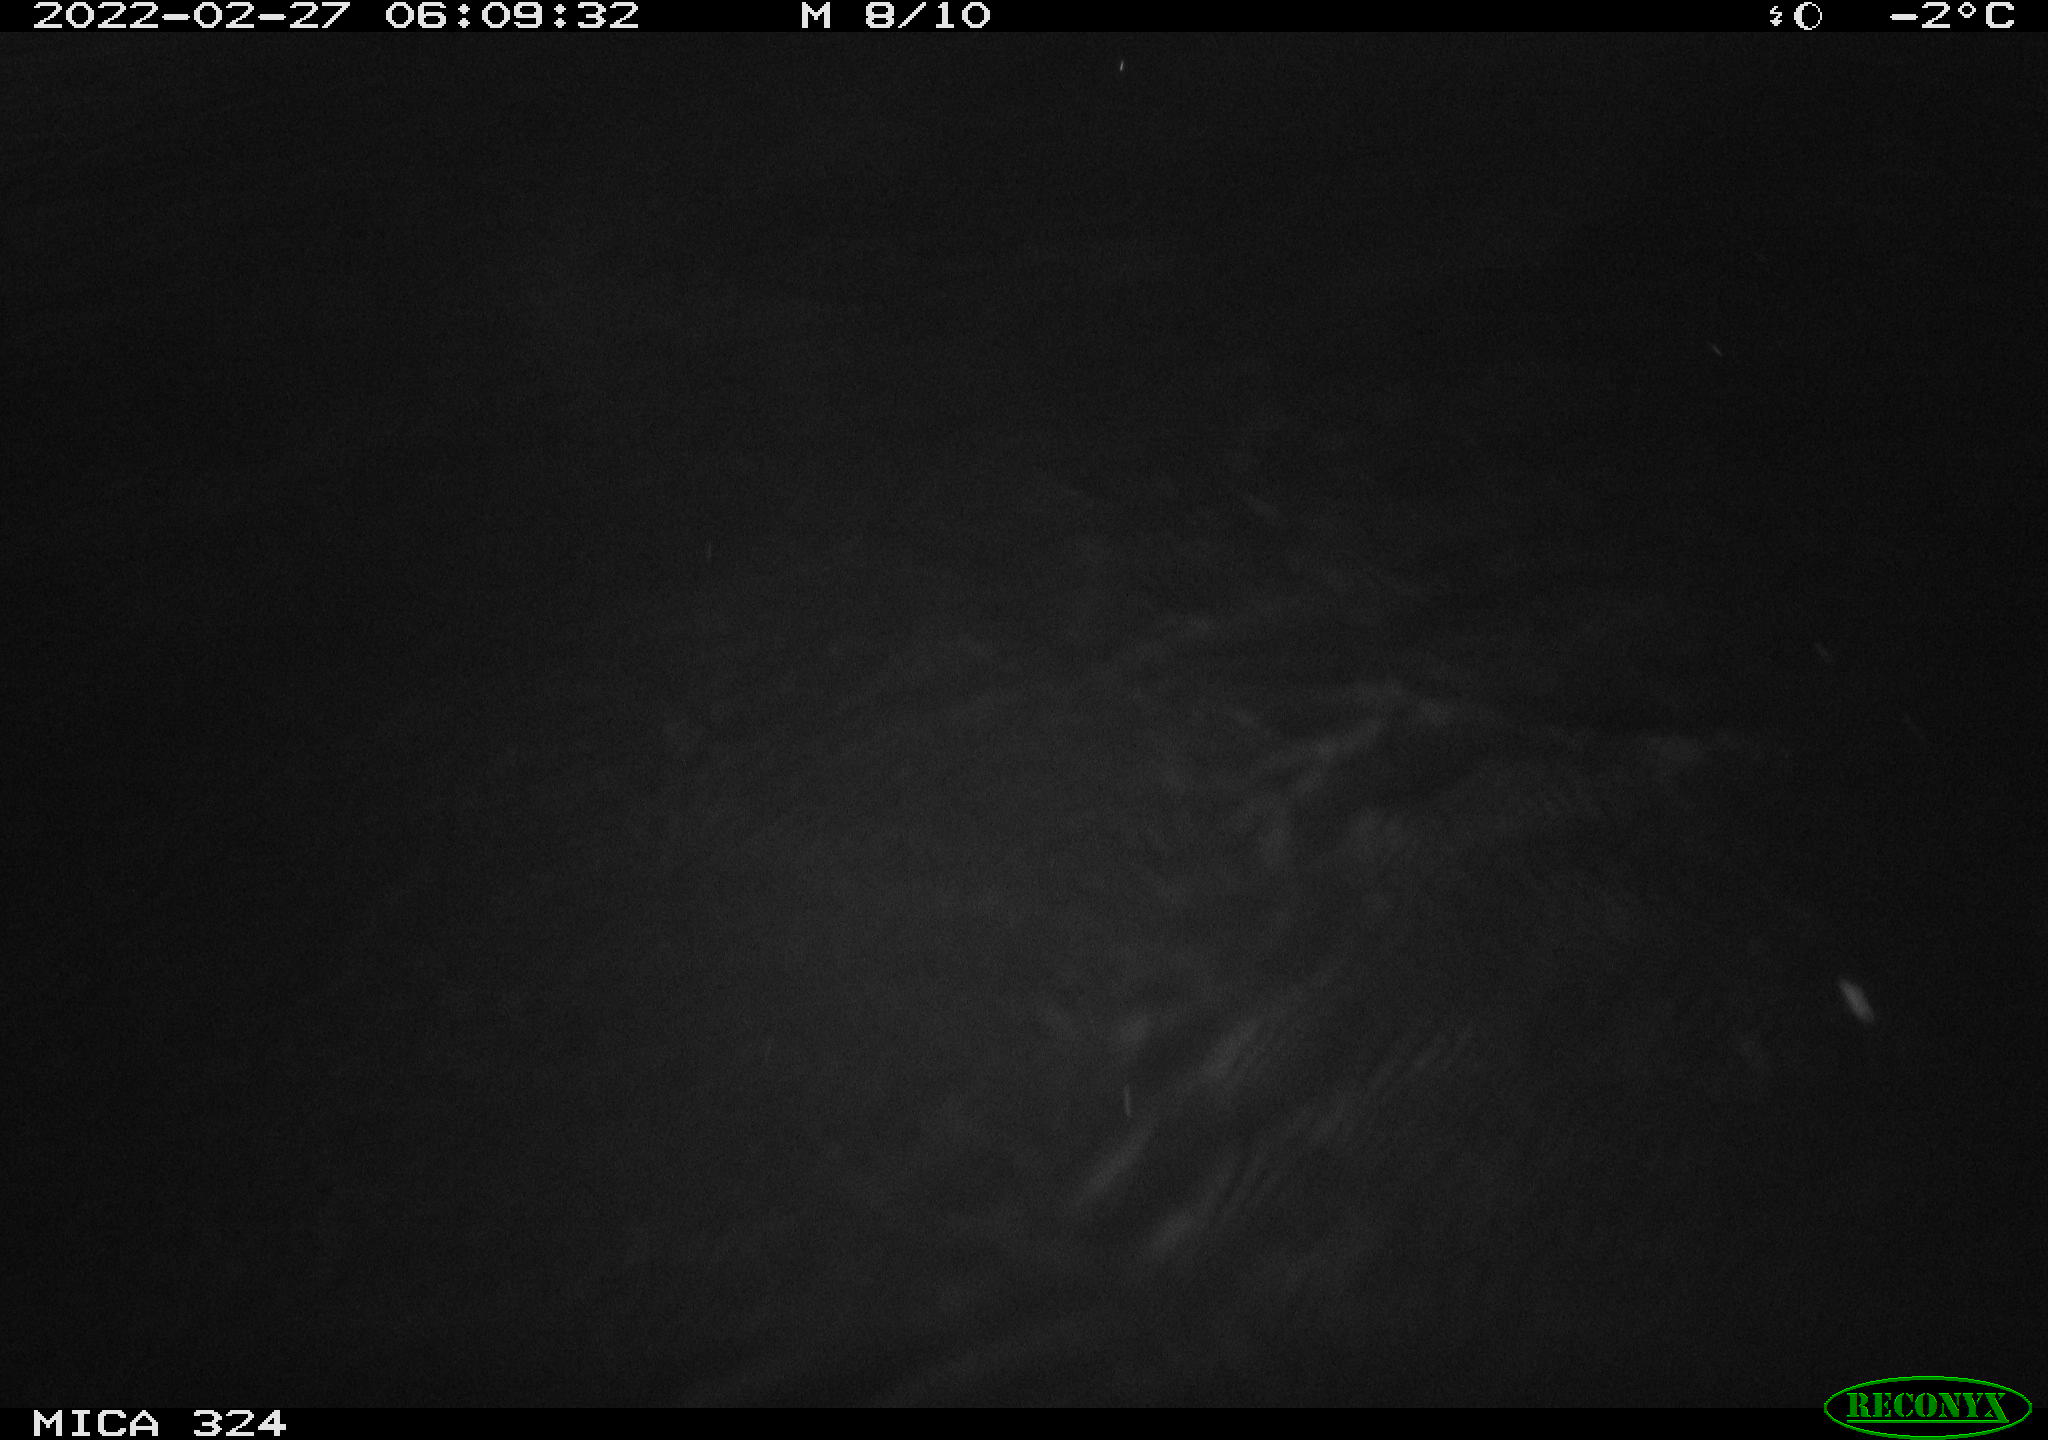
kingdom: Animalia
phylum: Chordata
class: Mammalia
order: Rodentia
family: Cricetidae
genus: Ondatra
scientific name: Ondatra zibethicus
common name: Muskrat
